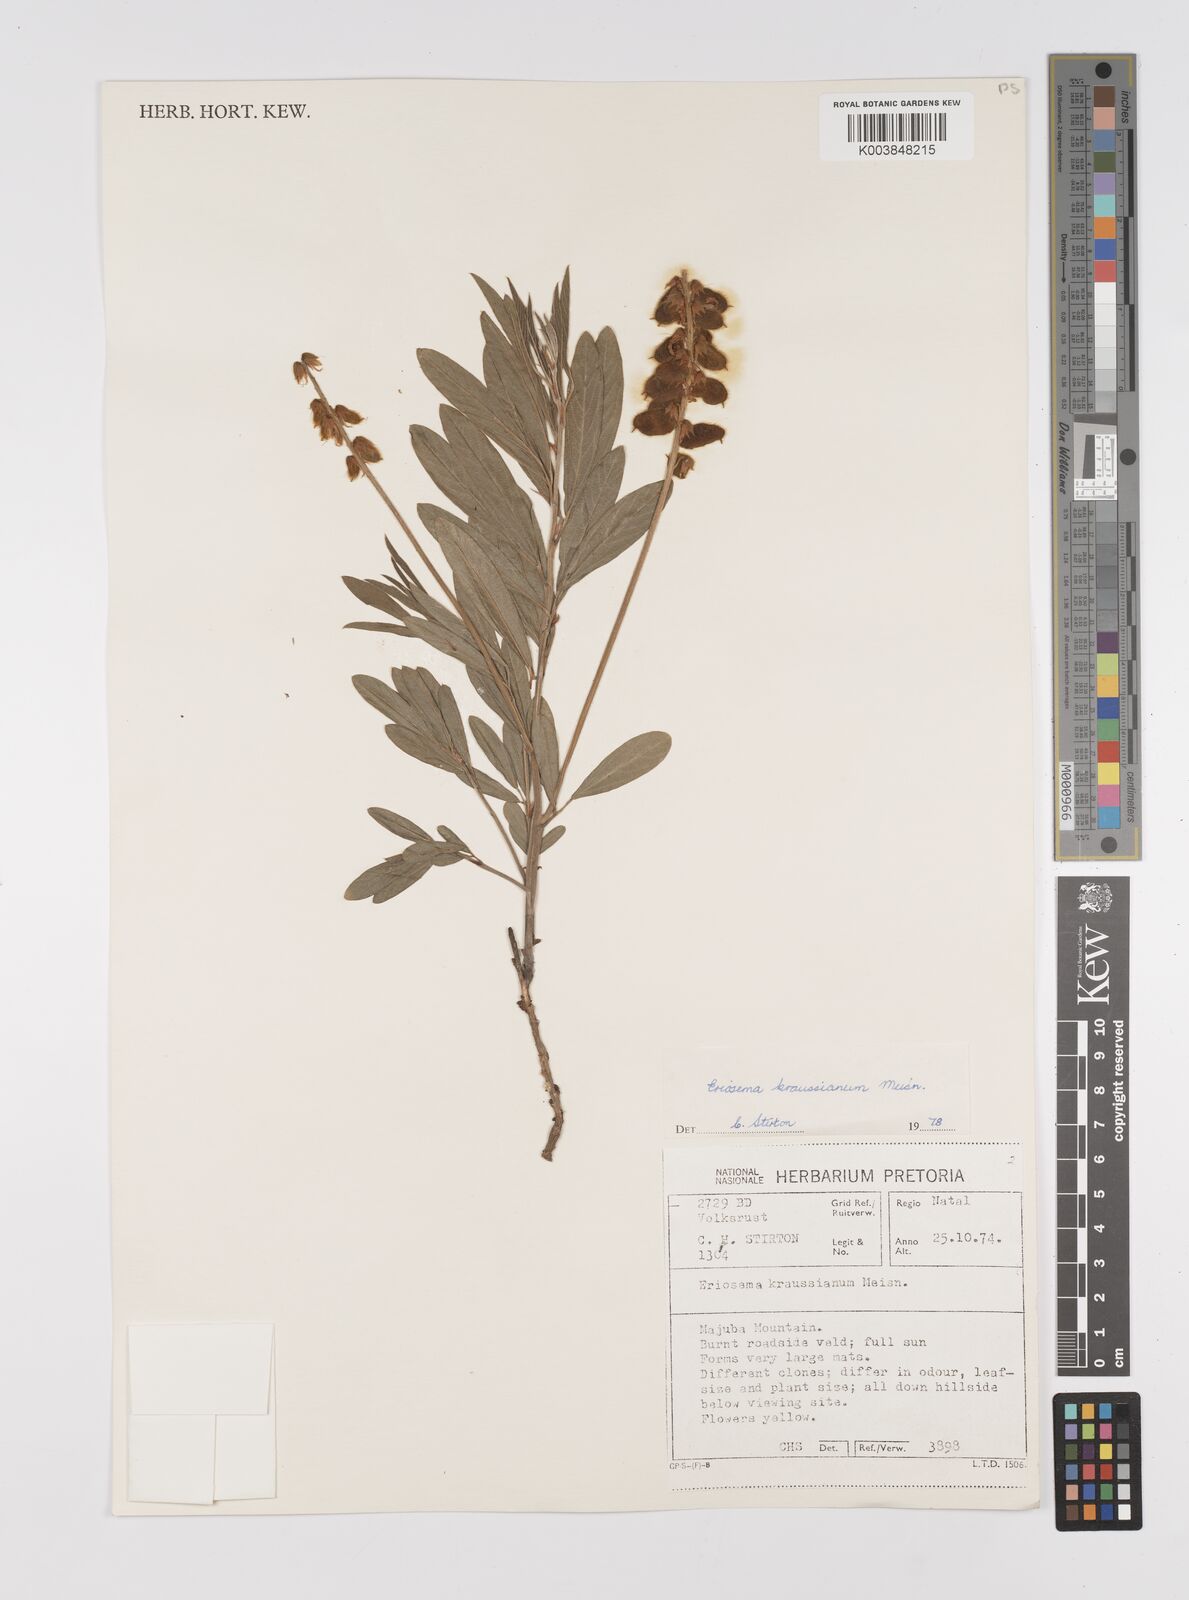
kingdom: Plantae
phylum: Tracheophyta
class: Magnoliopsida
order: Fabales
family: Fabaceae
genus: Eriosema
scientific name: Eriosema kraussianum
